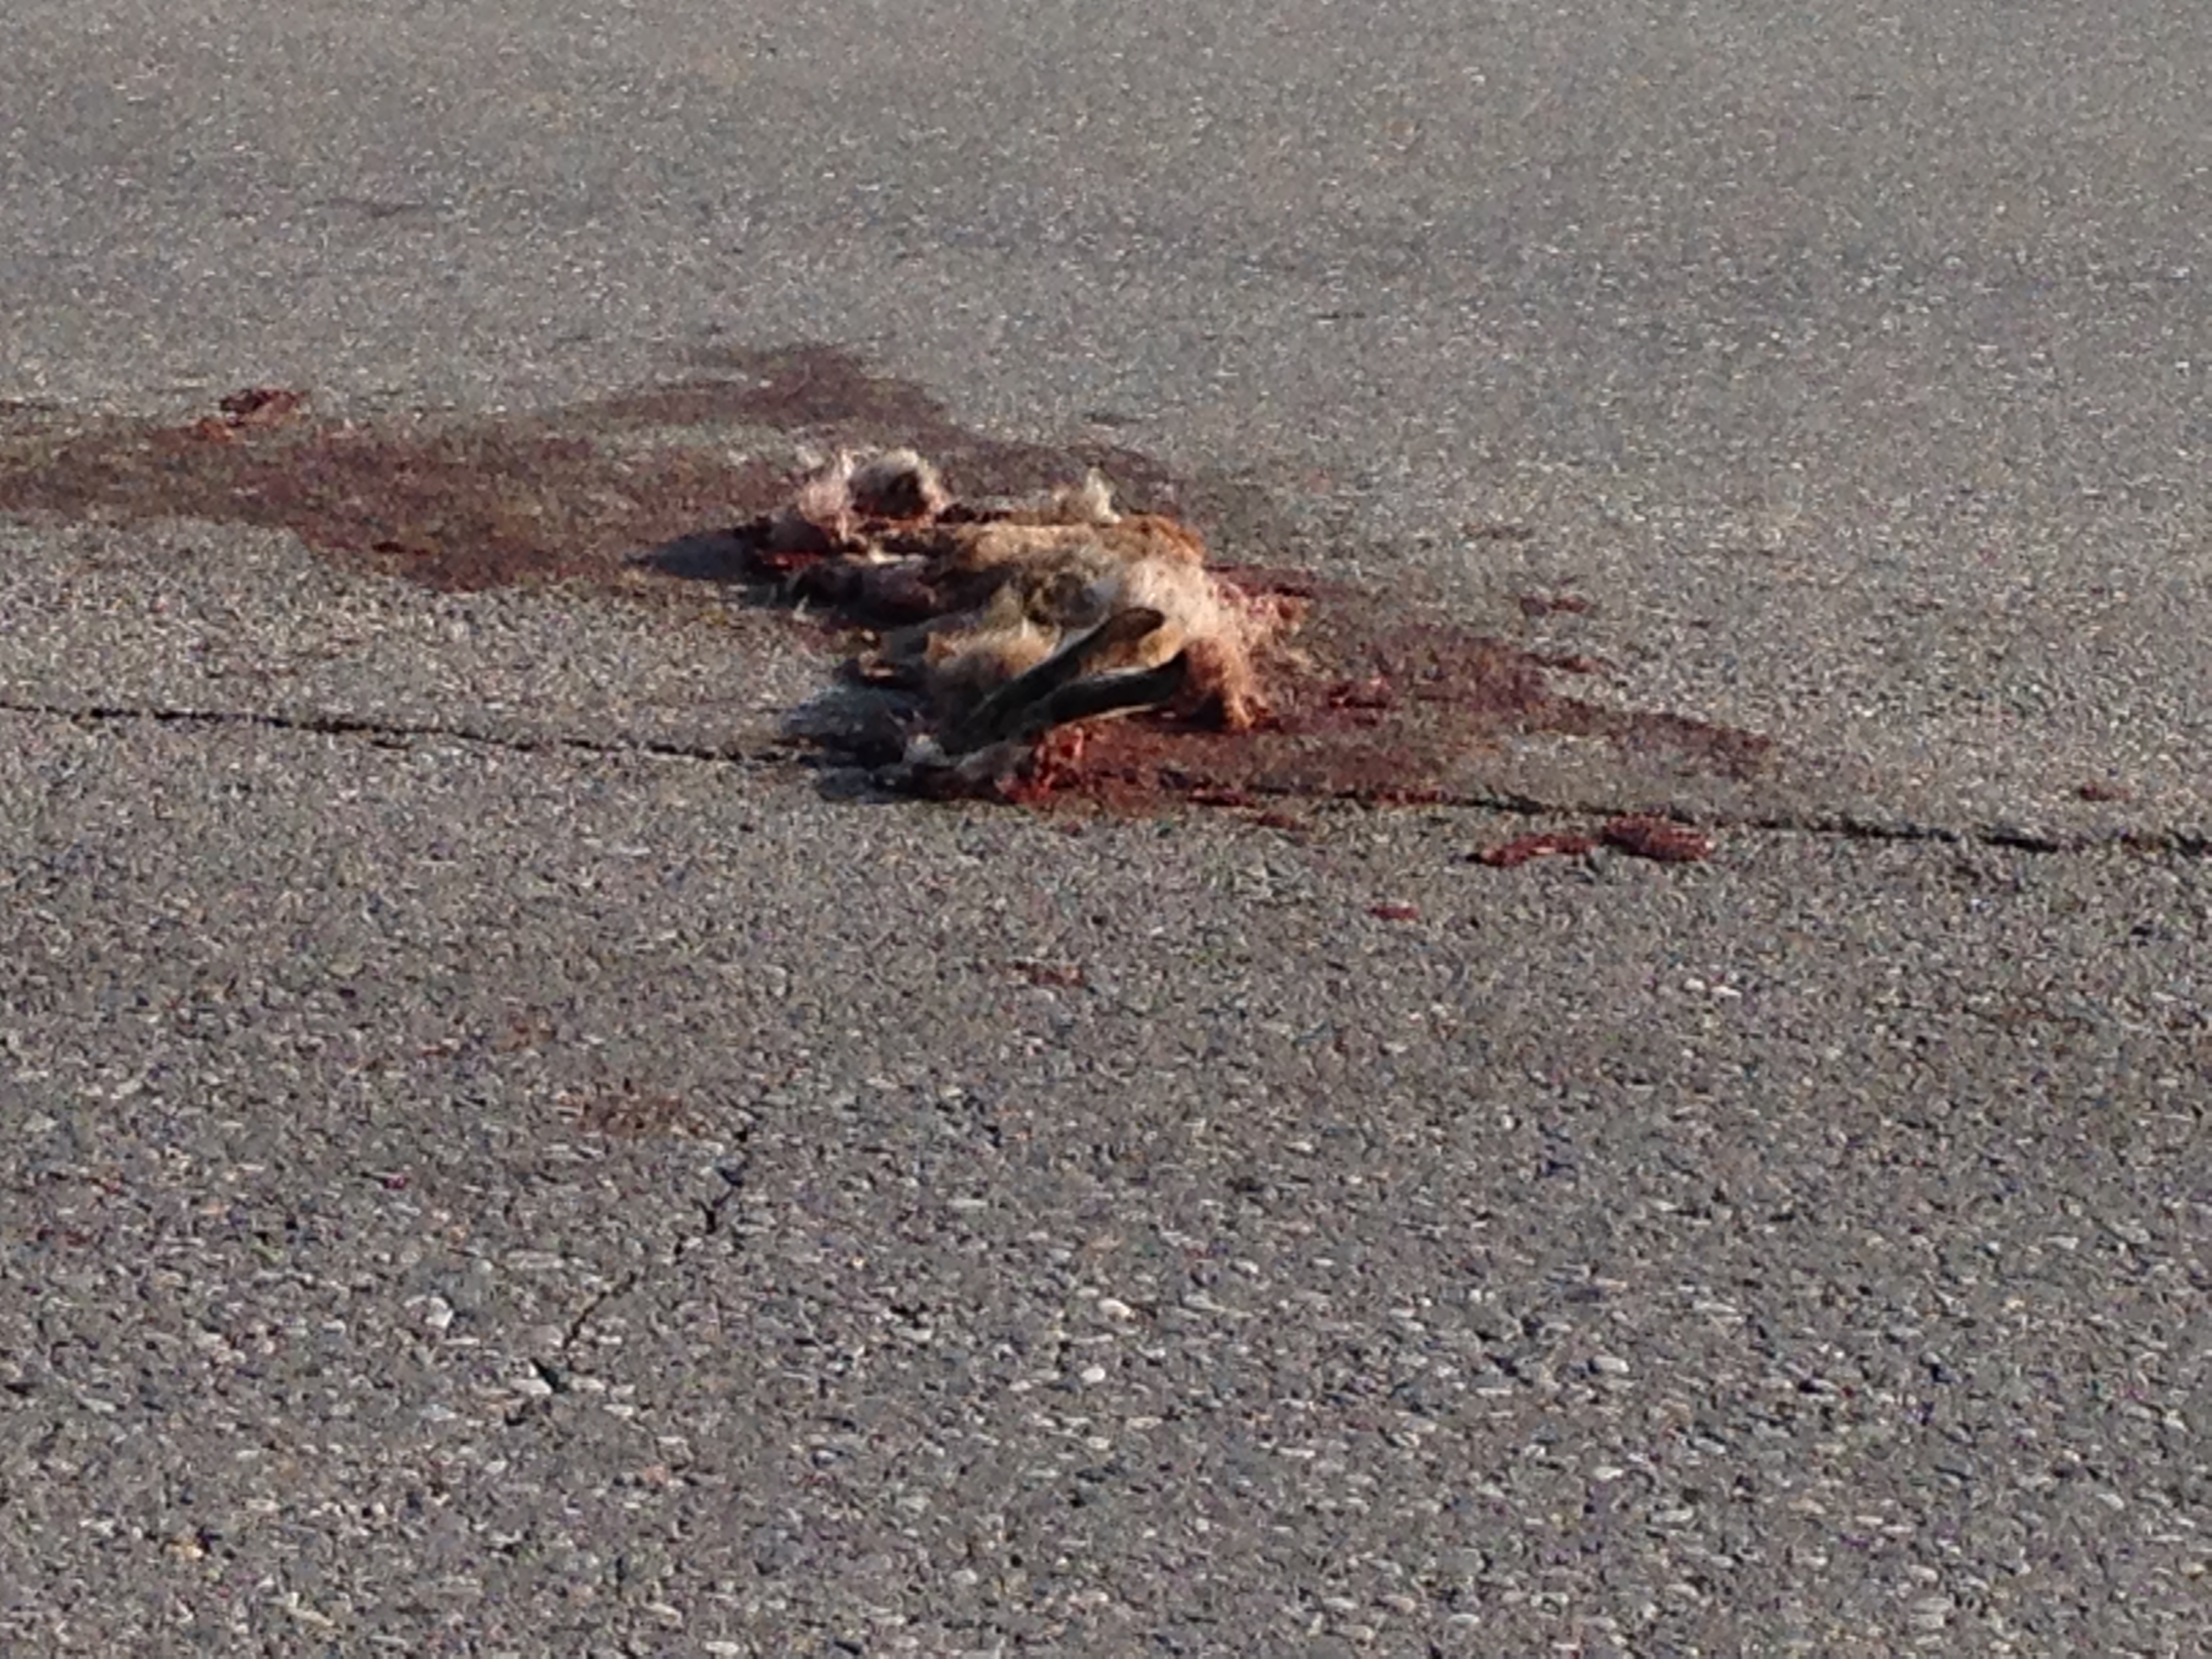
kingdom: Animalia
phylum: Chordata
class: Mammalia
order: Lagomorpha
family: Leporidae
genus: Lepus
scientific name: Lepus europaeus
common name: European hare
